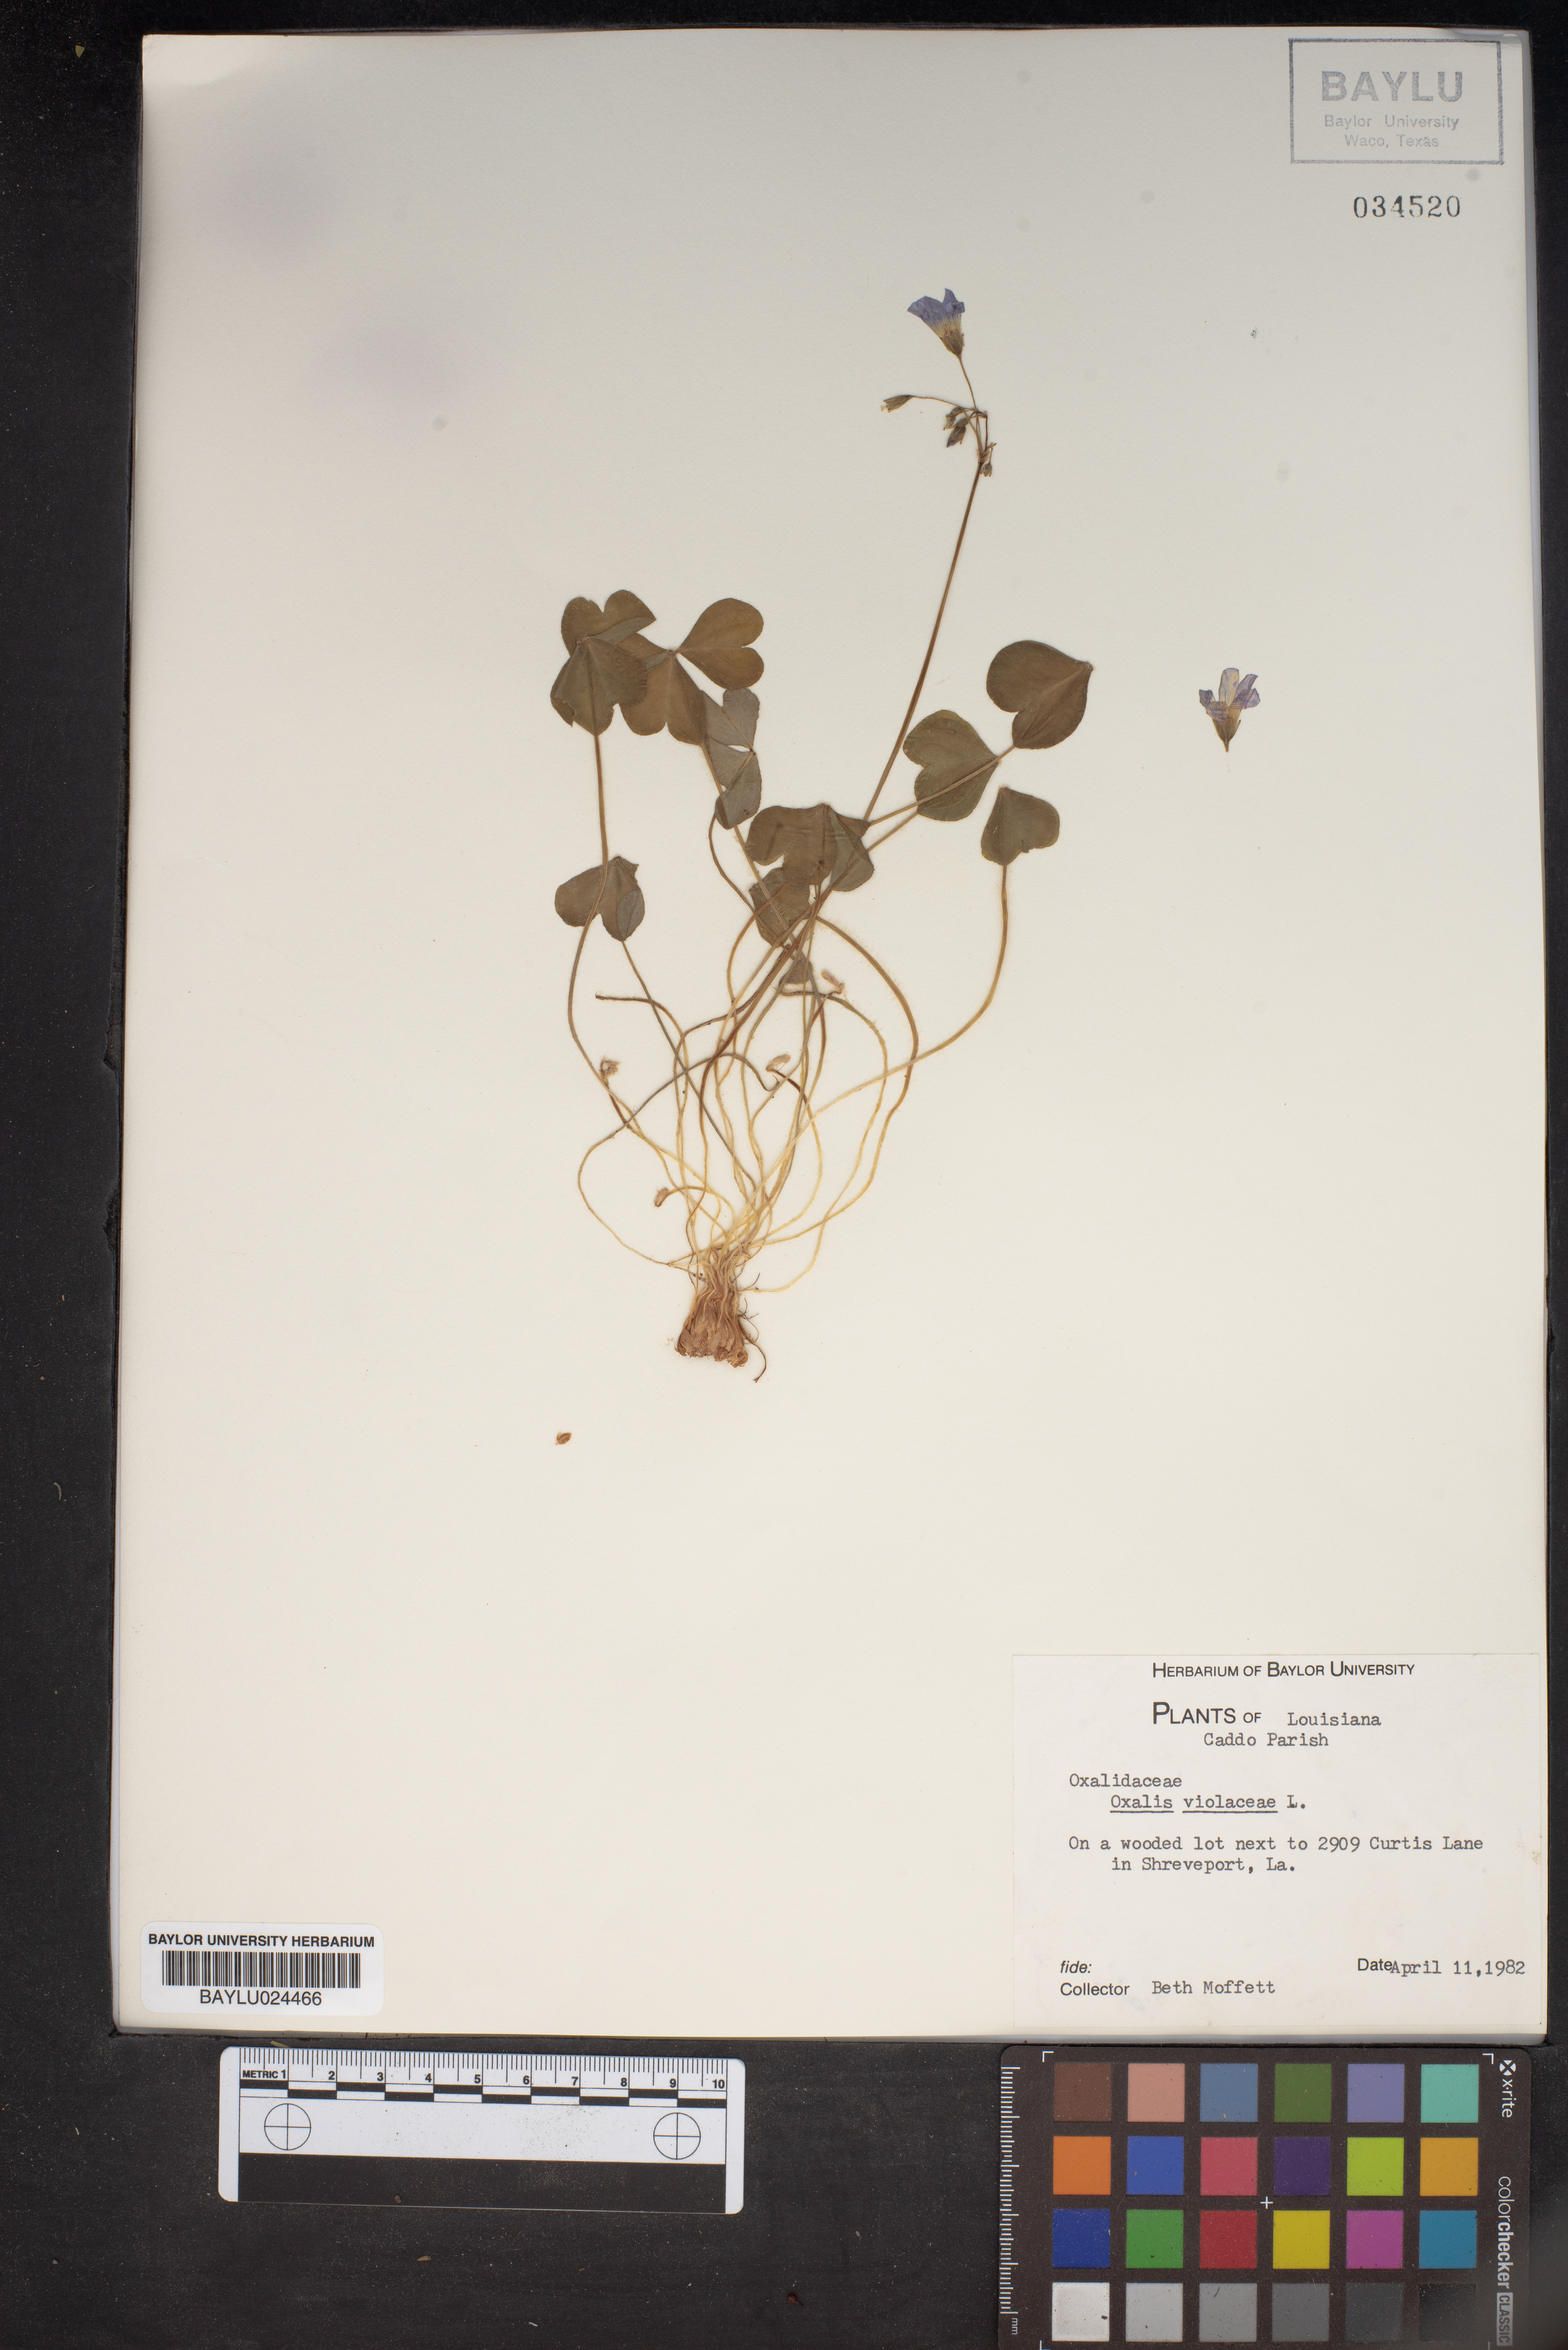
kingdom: Plantae
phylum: Tracheophyta
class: Magnoliopsida
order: Oxalidales
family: Oxalidaceae
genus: Oxalis
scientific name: Oxalis violacea
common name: Violet wood-sorrel
